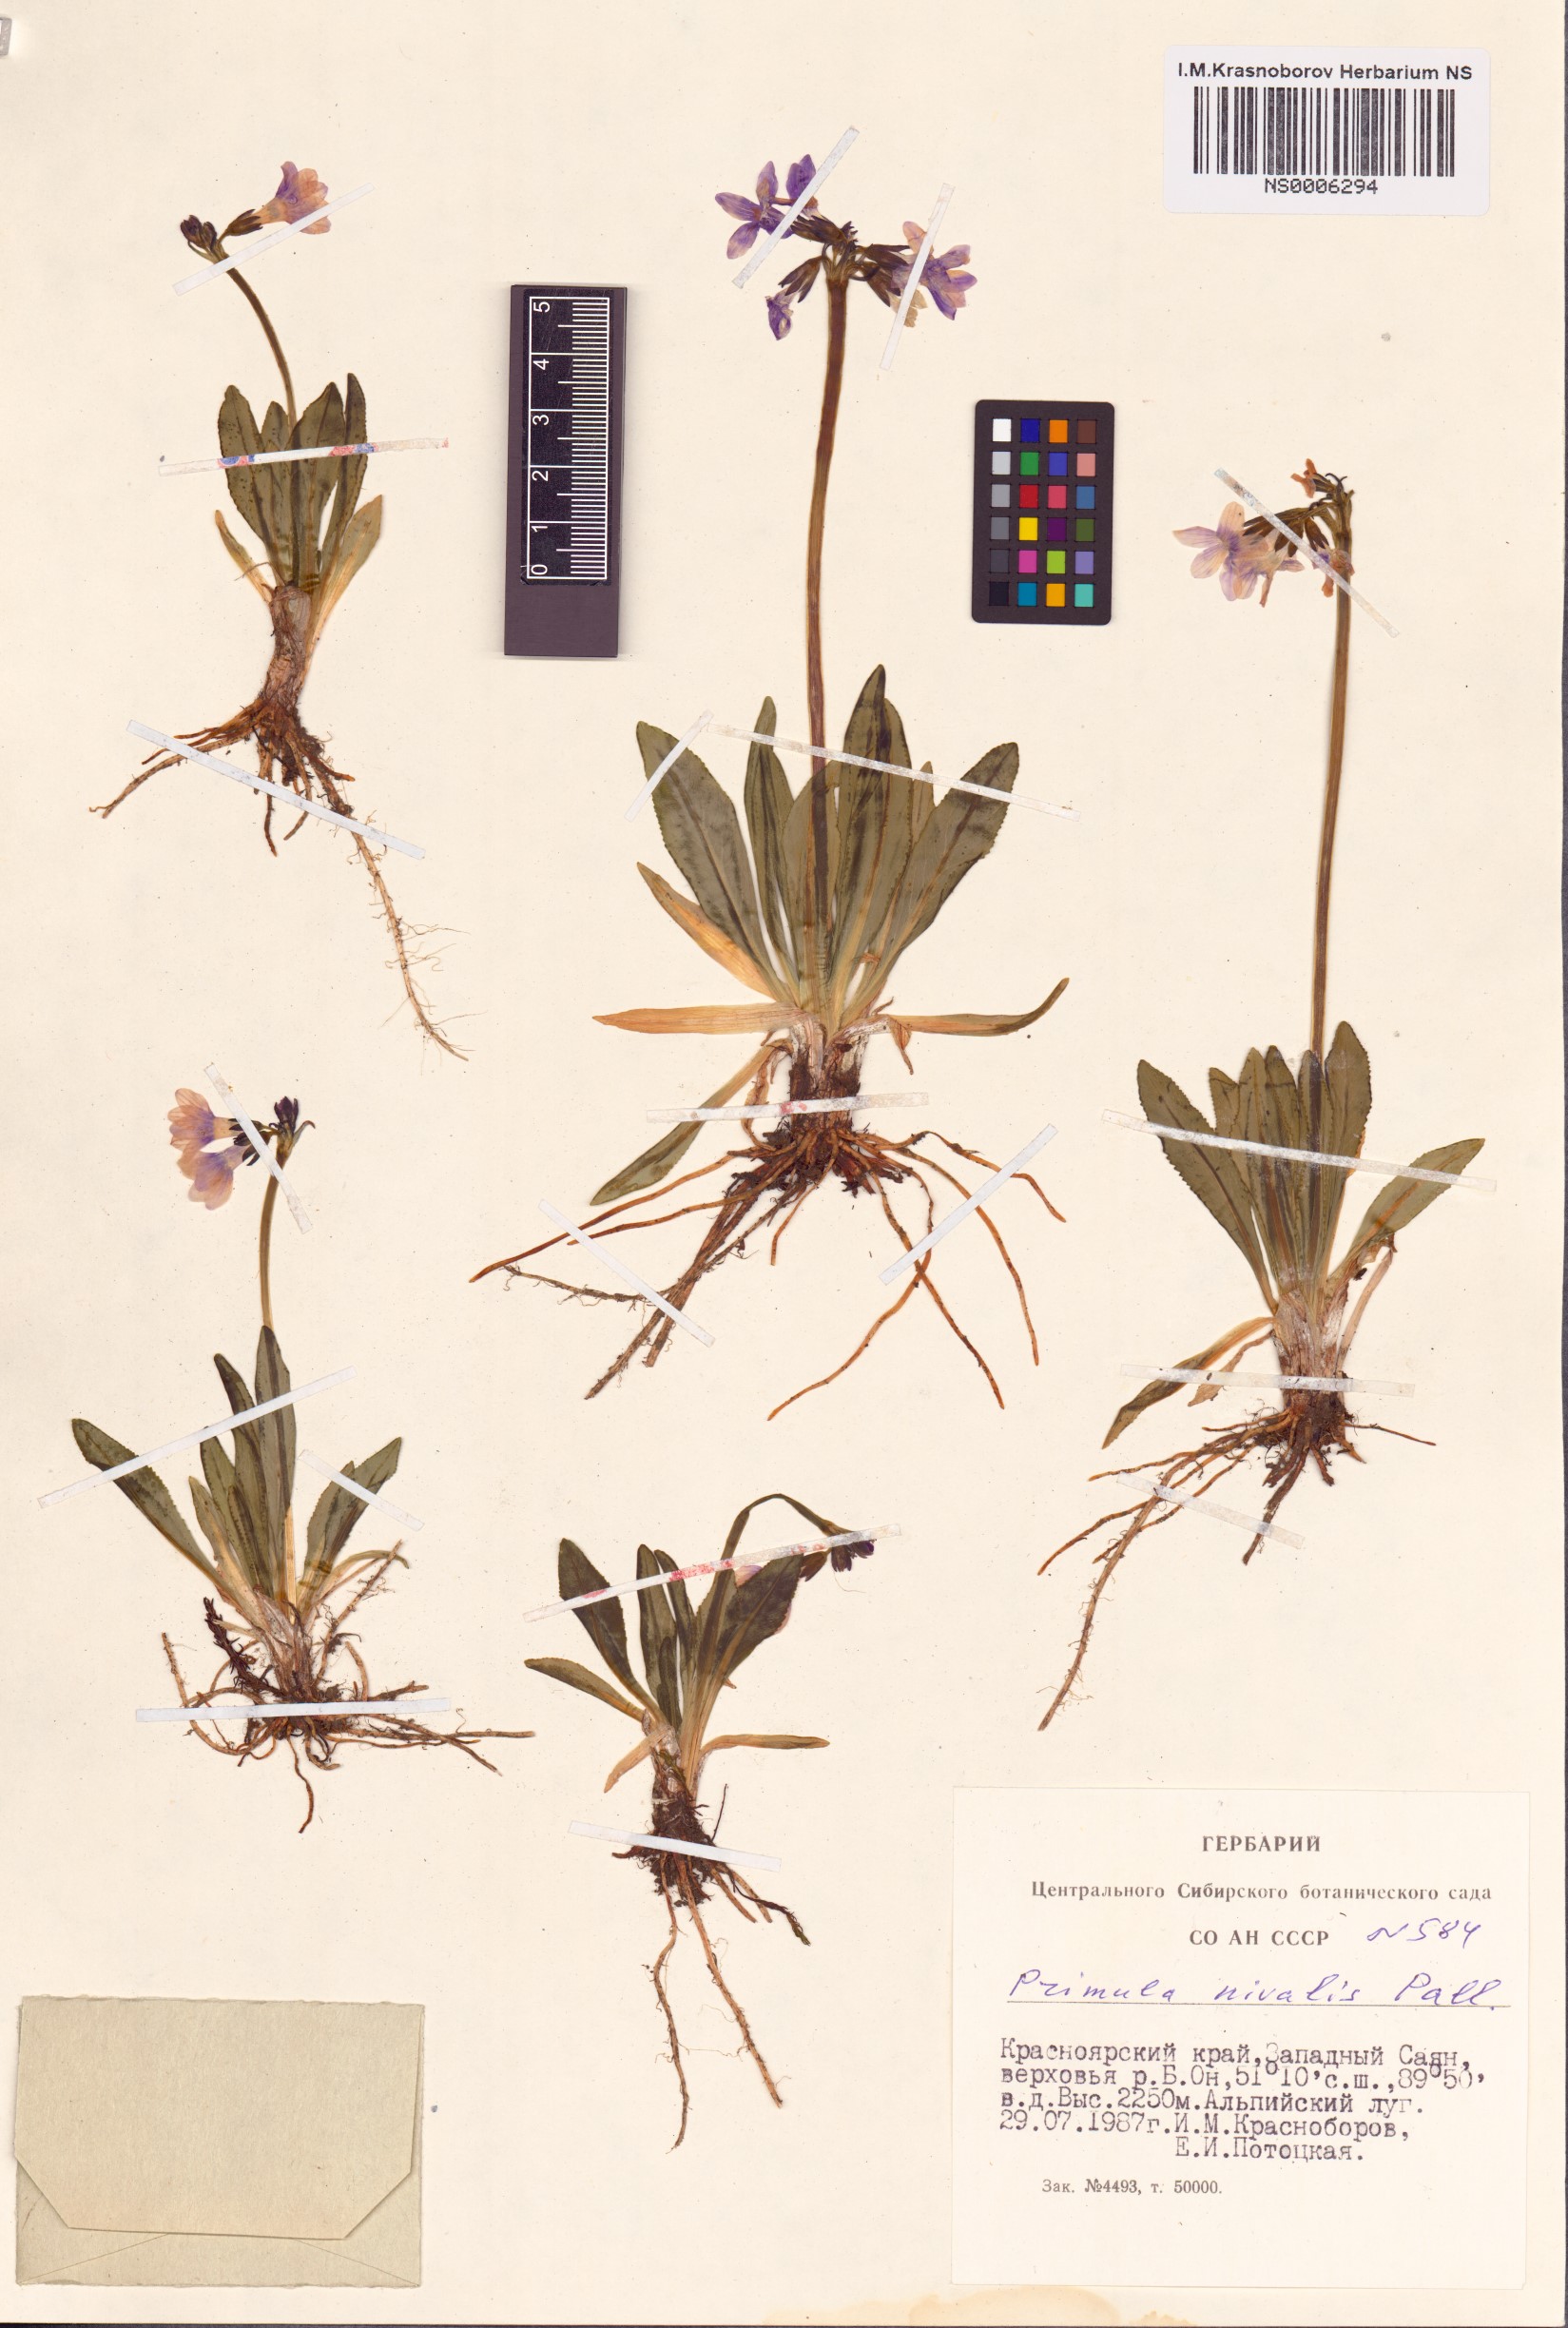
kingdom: Plantae
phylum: Tracheophyta
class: Magnoliopsida
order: Ericales
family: Primulaceae
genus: Primula
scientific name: Primula nivalis
